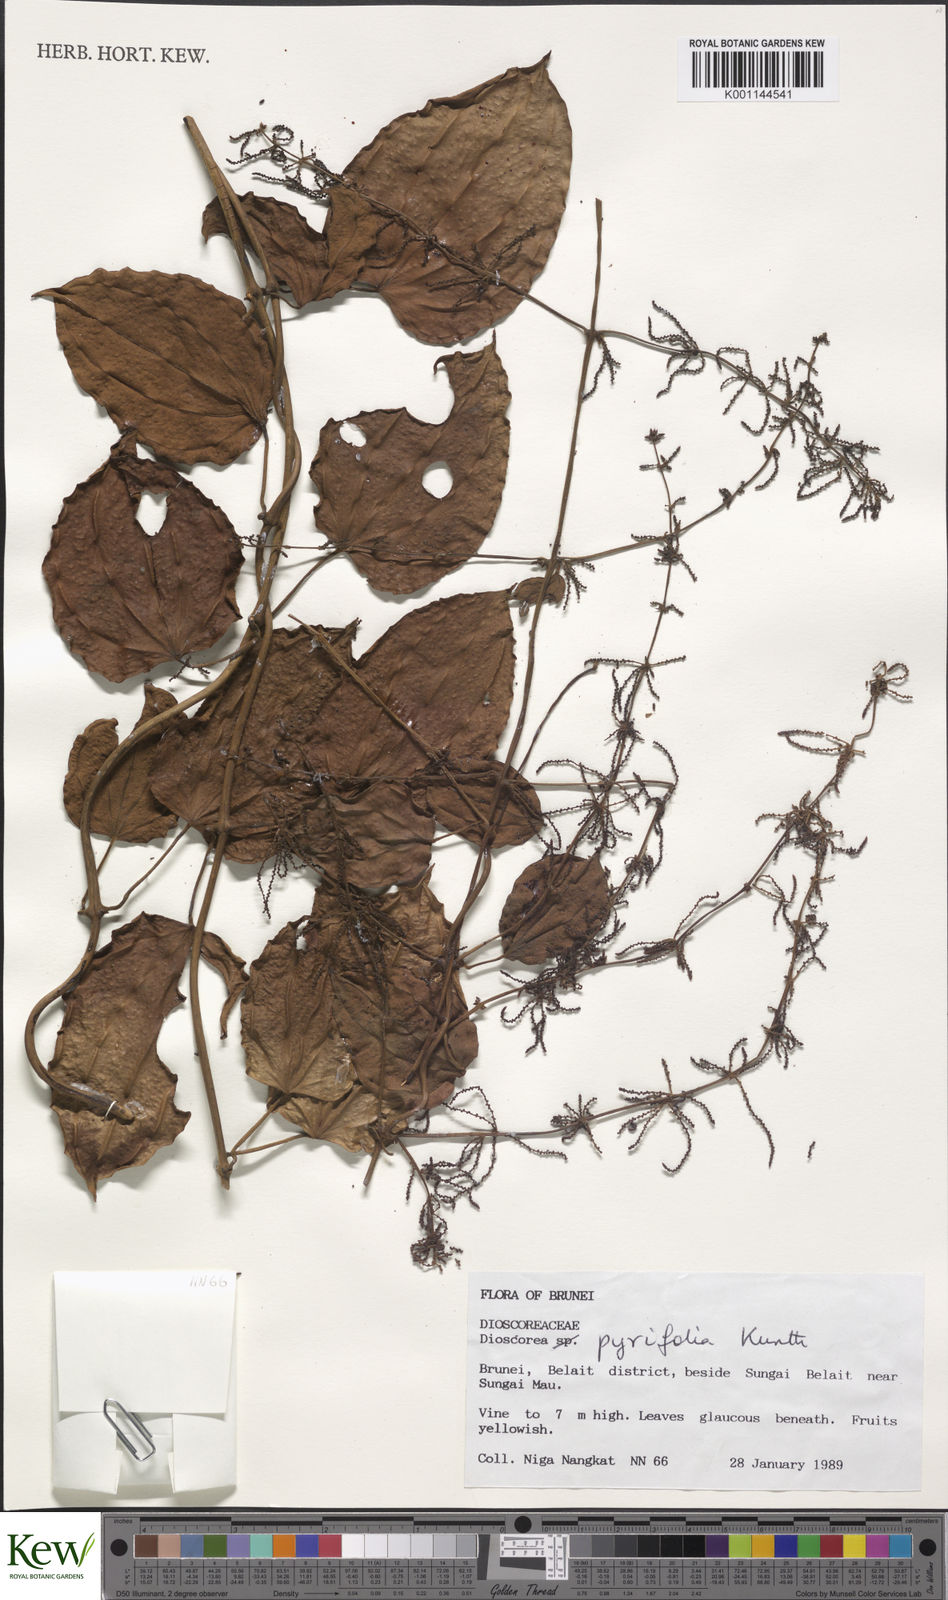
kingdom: Plantae
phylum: Tracheophyta
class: Liliopsida
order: Dioscoreales
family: Dioscoreaceae
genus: Dioscorea
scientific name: Dioscorea pyrifolia
